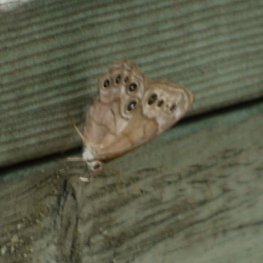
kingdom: Animalia
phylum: Arthropoda
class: Insecta
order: Lepidoptera
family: Nymphalidae
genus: Lethe
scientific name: Lethe anthedon
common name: Northern Pearly-Eye
